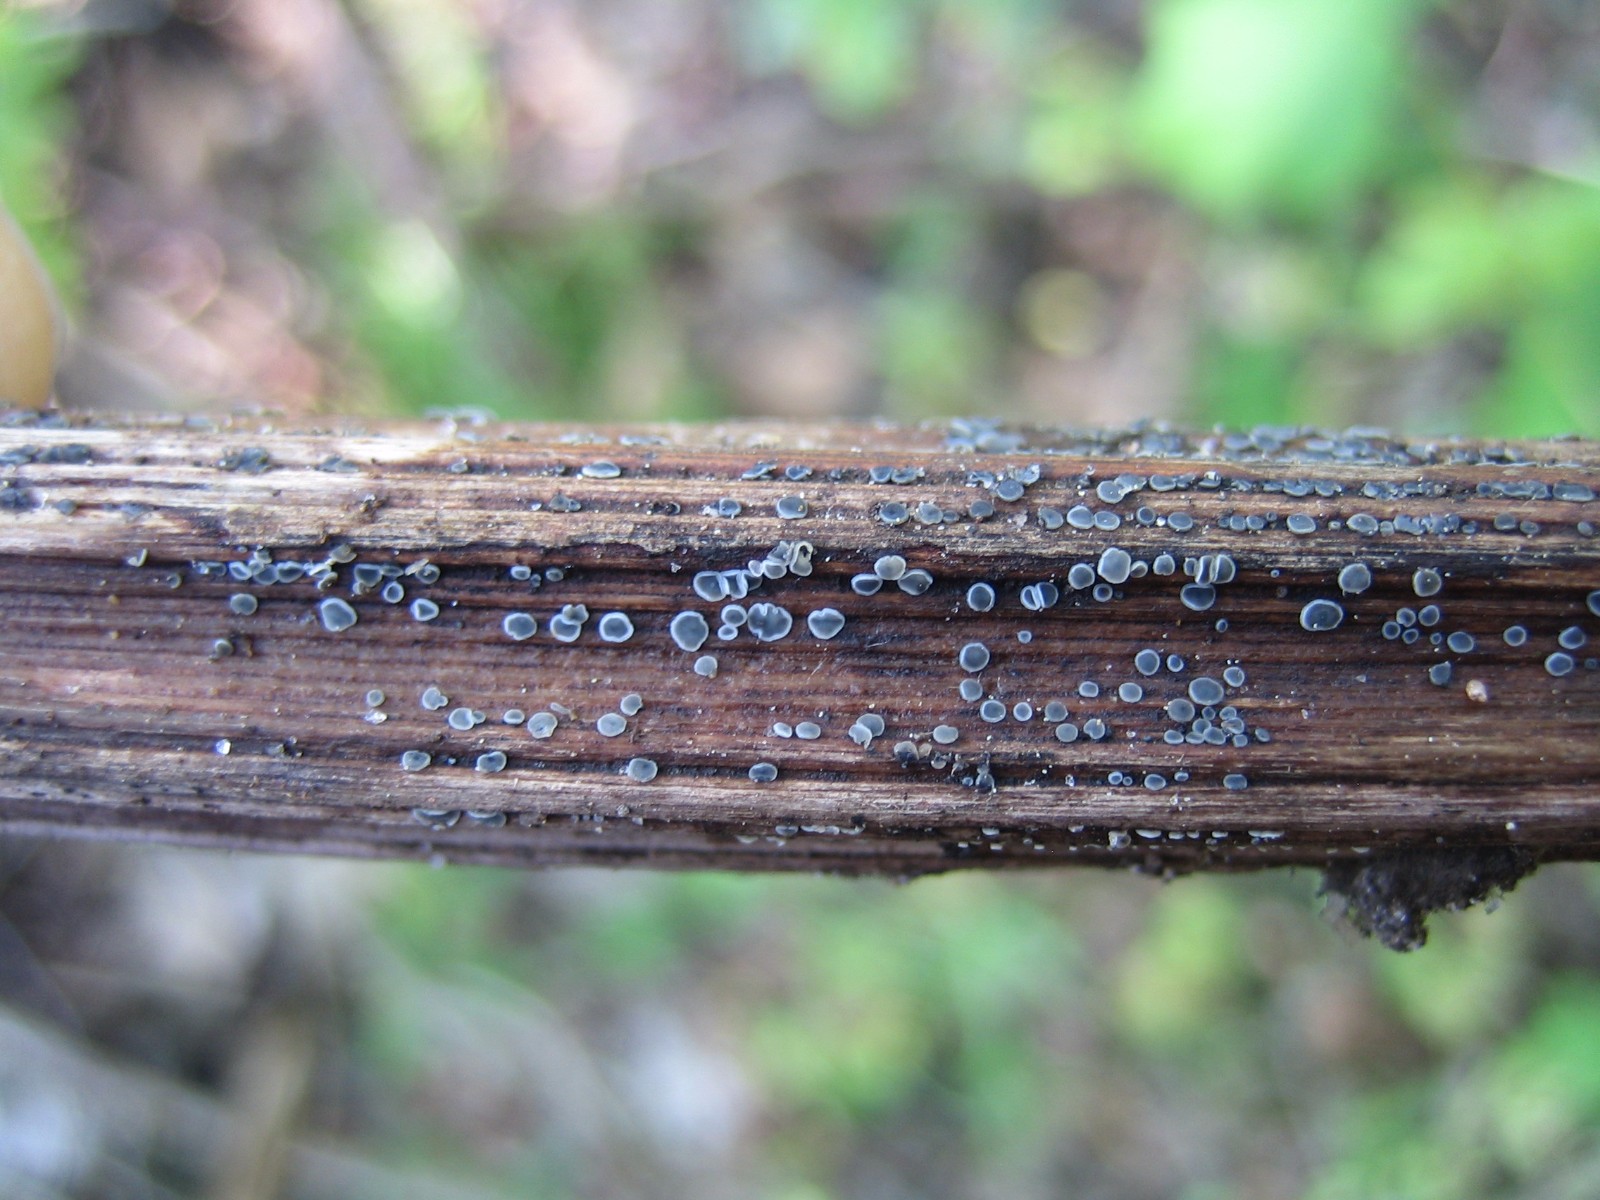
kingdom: Fungi
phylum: Ascomycota
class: Leotiomycetes
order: Helotiales
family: Dermateaceae
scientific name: Dermateaceae
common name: gråskivefamilien
